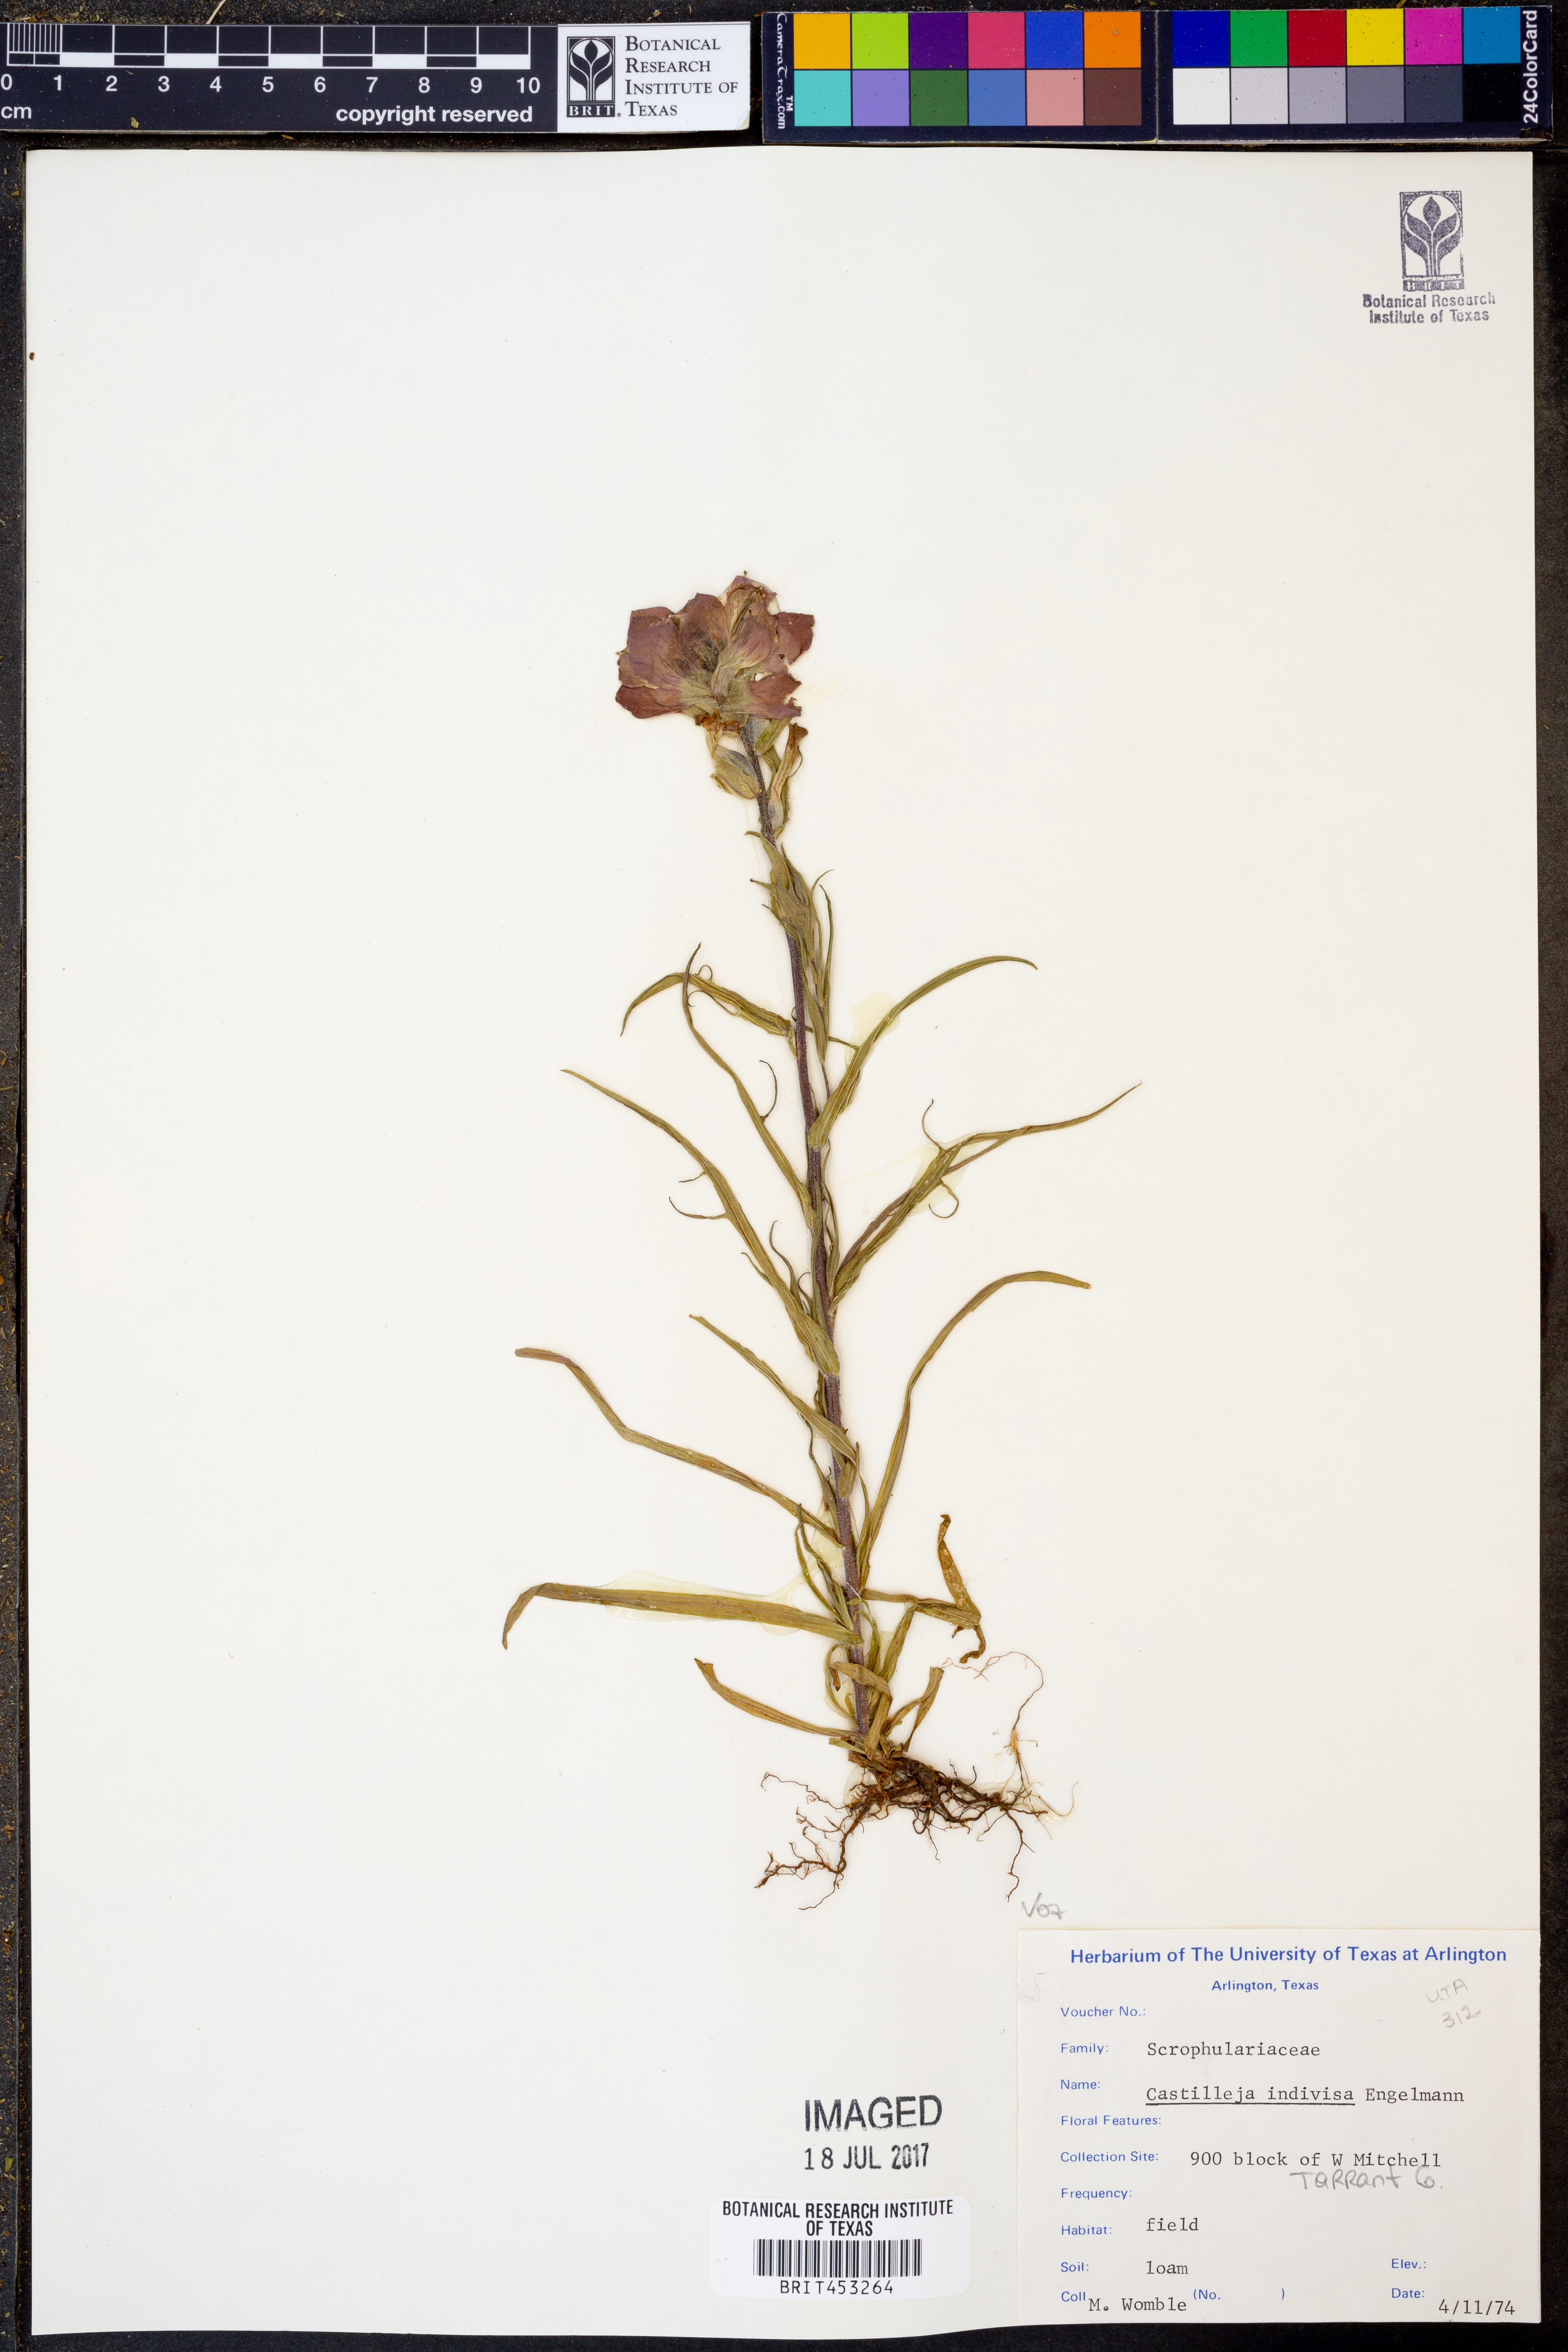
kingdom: Plantae
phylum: Tracheophyta
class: Magnoliopsida
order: Lamiales
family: Orobanchaceae
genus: Castilleja
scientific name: Castilleja indivisa
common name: Texas paintbrush
